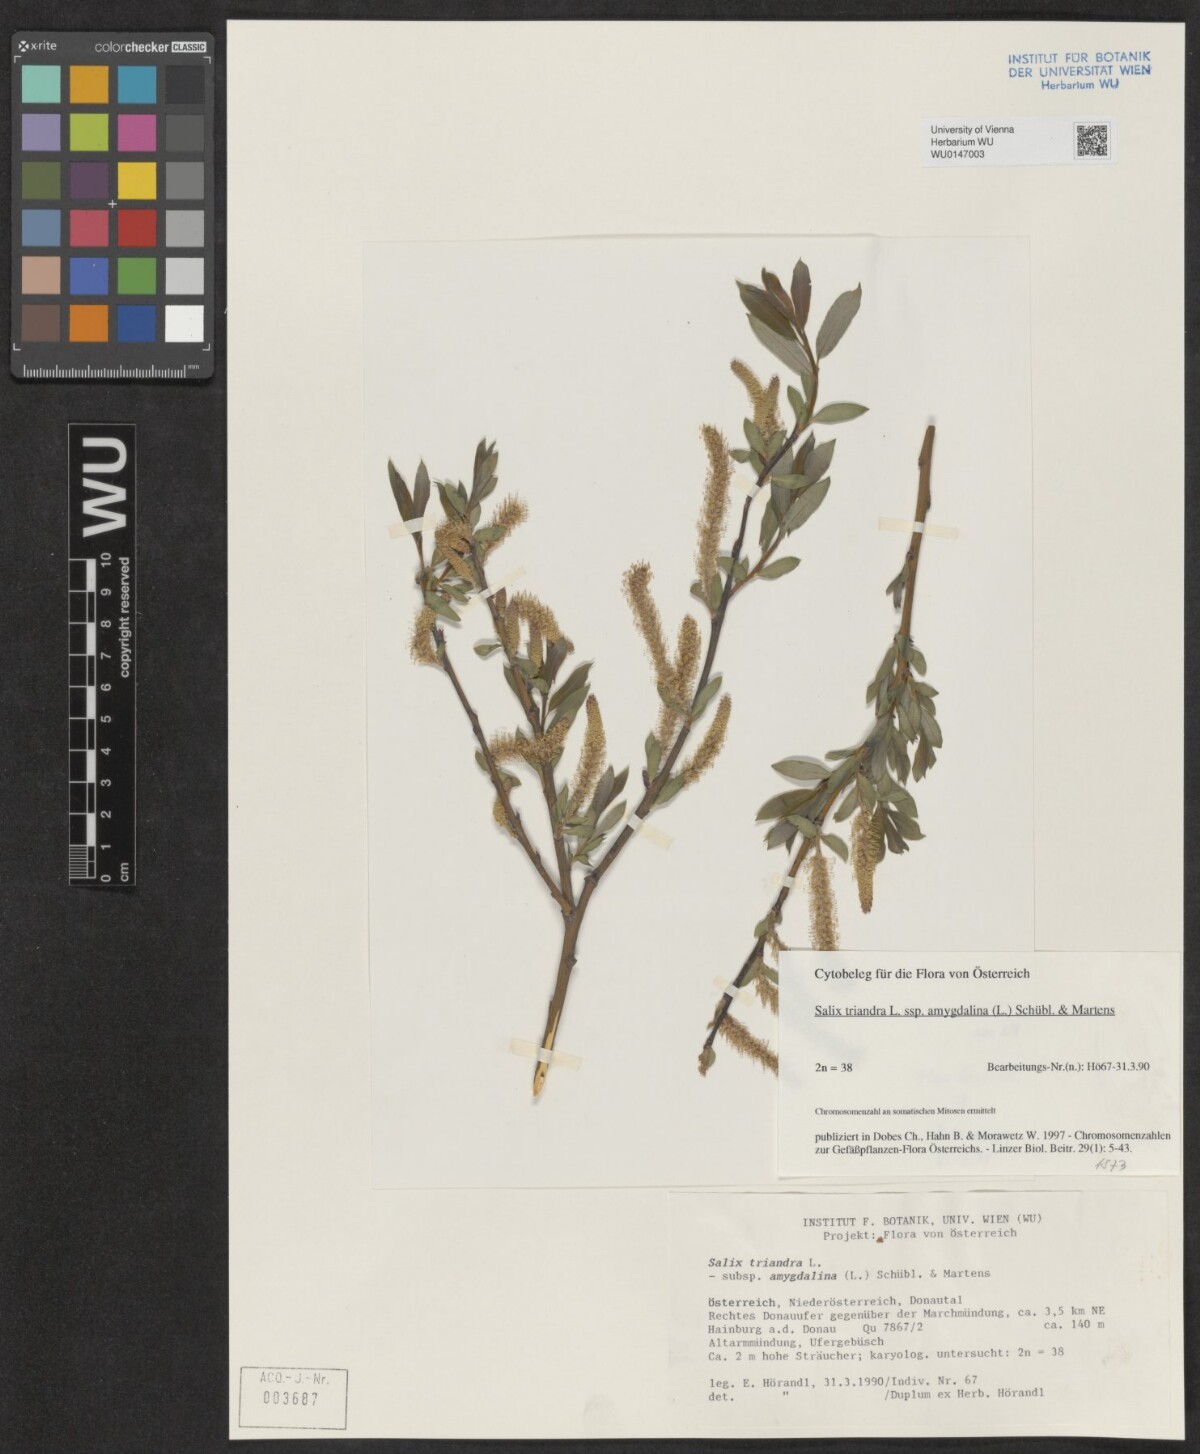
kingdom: Plantae
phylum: Tracheophyta
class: Magnoliopsida
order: Malpighiales
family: Salicaceae
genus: Salix
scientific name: Salix triandra
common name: Almond willow
